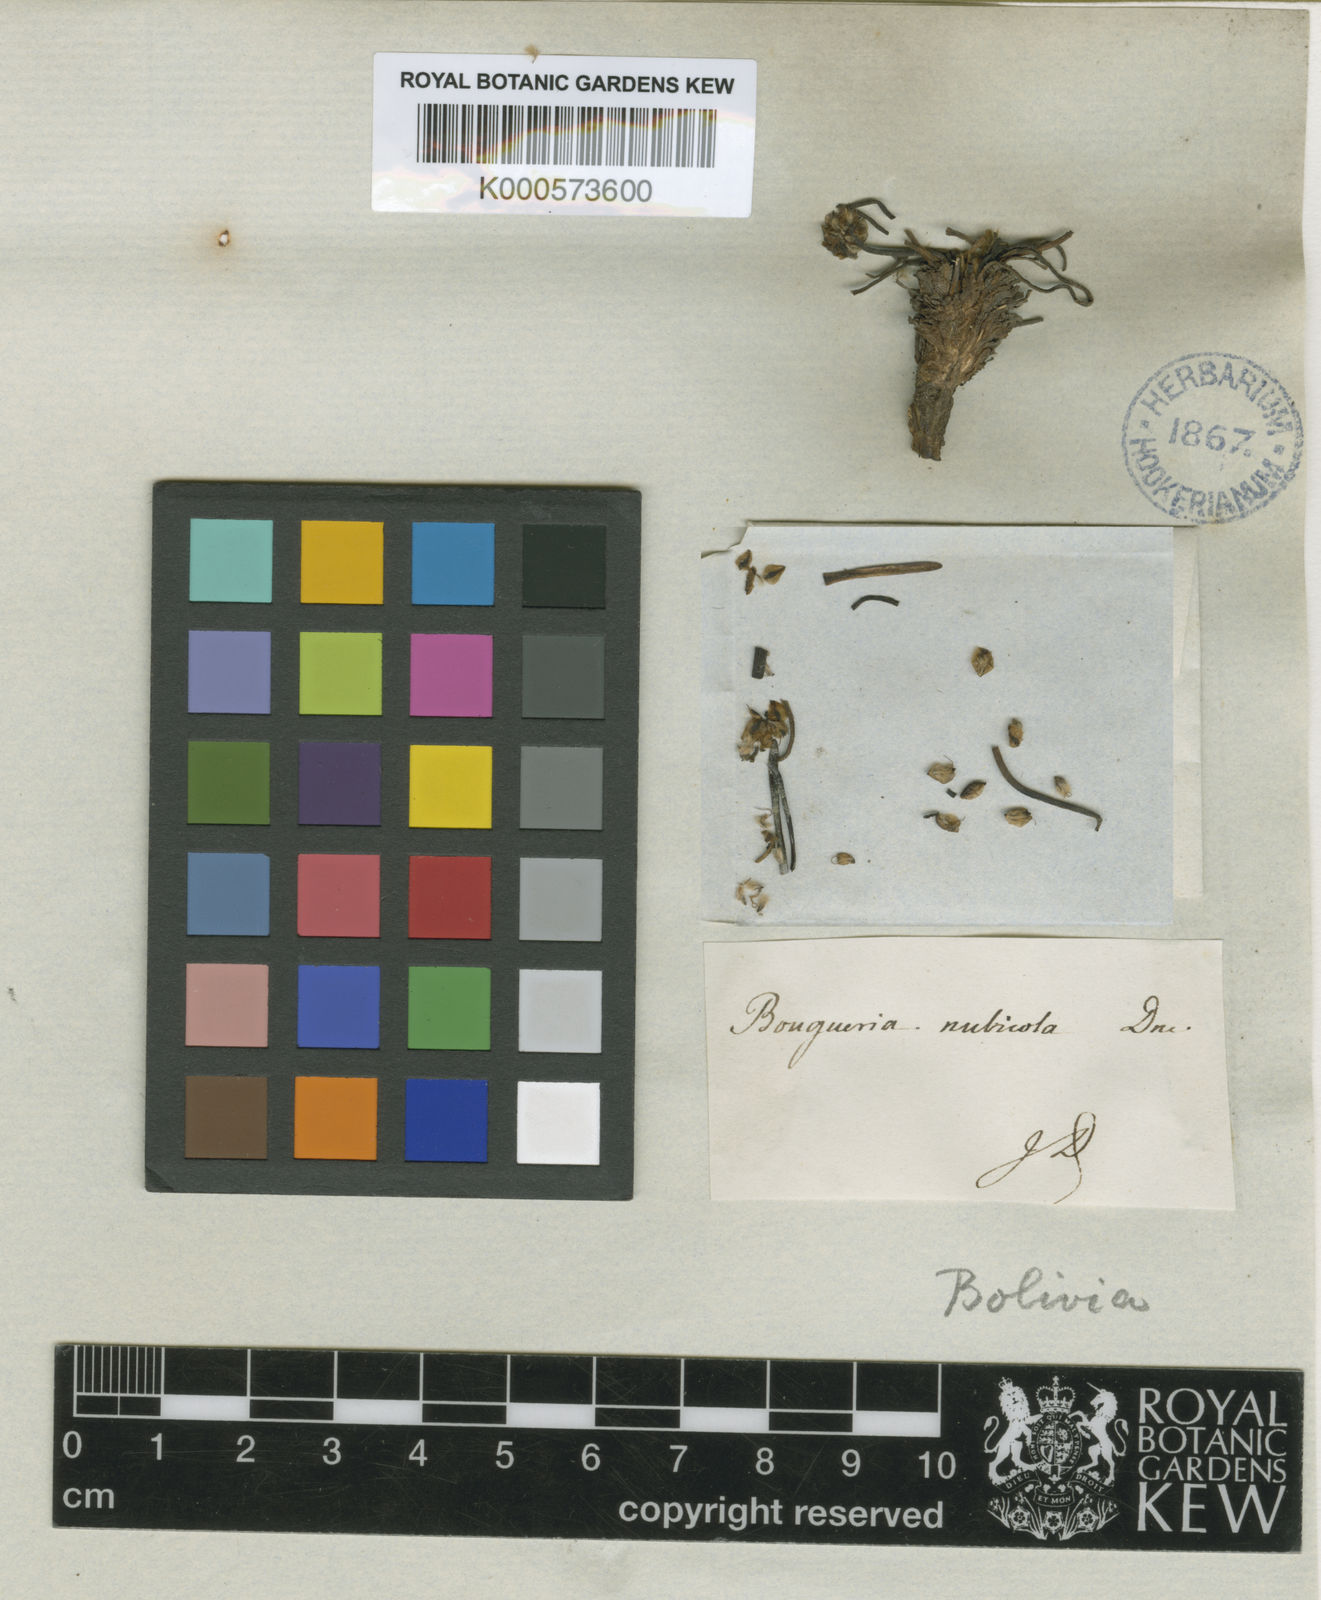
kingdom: Plantae
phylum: Tracheophyta
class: Magnoliopsida
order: Lamiales
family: Plantaginaceae
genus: Plantago
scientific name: Plantago nubicola
